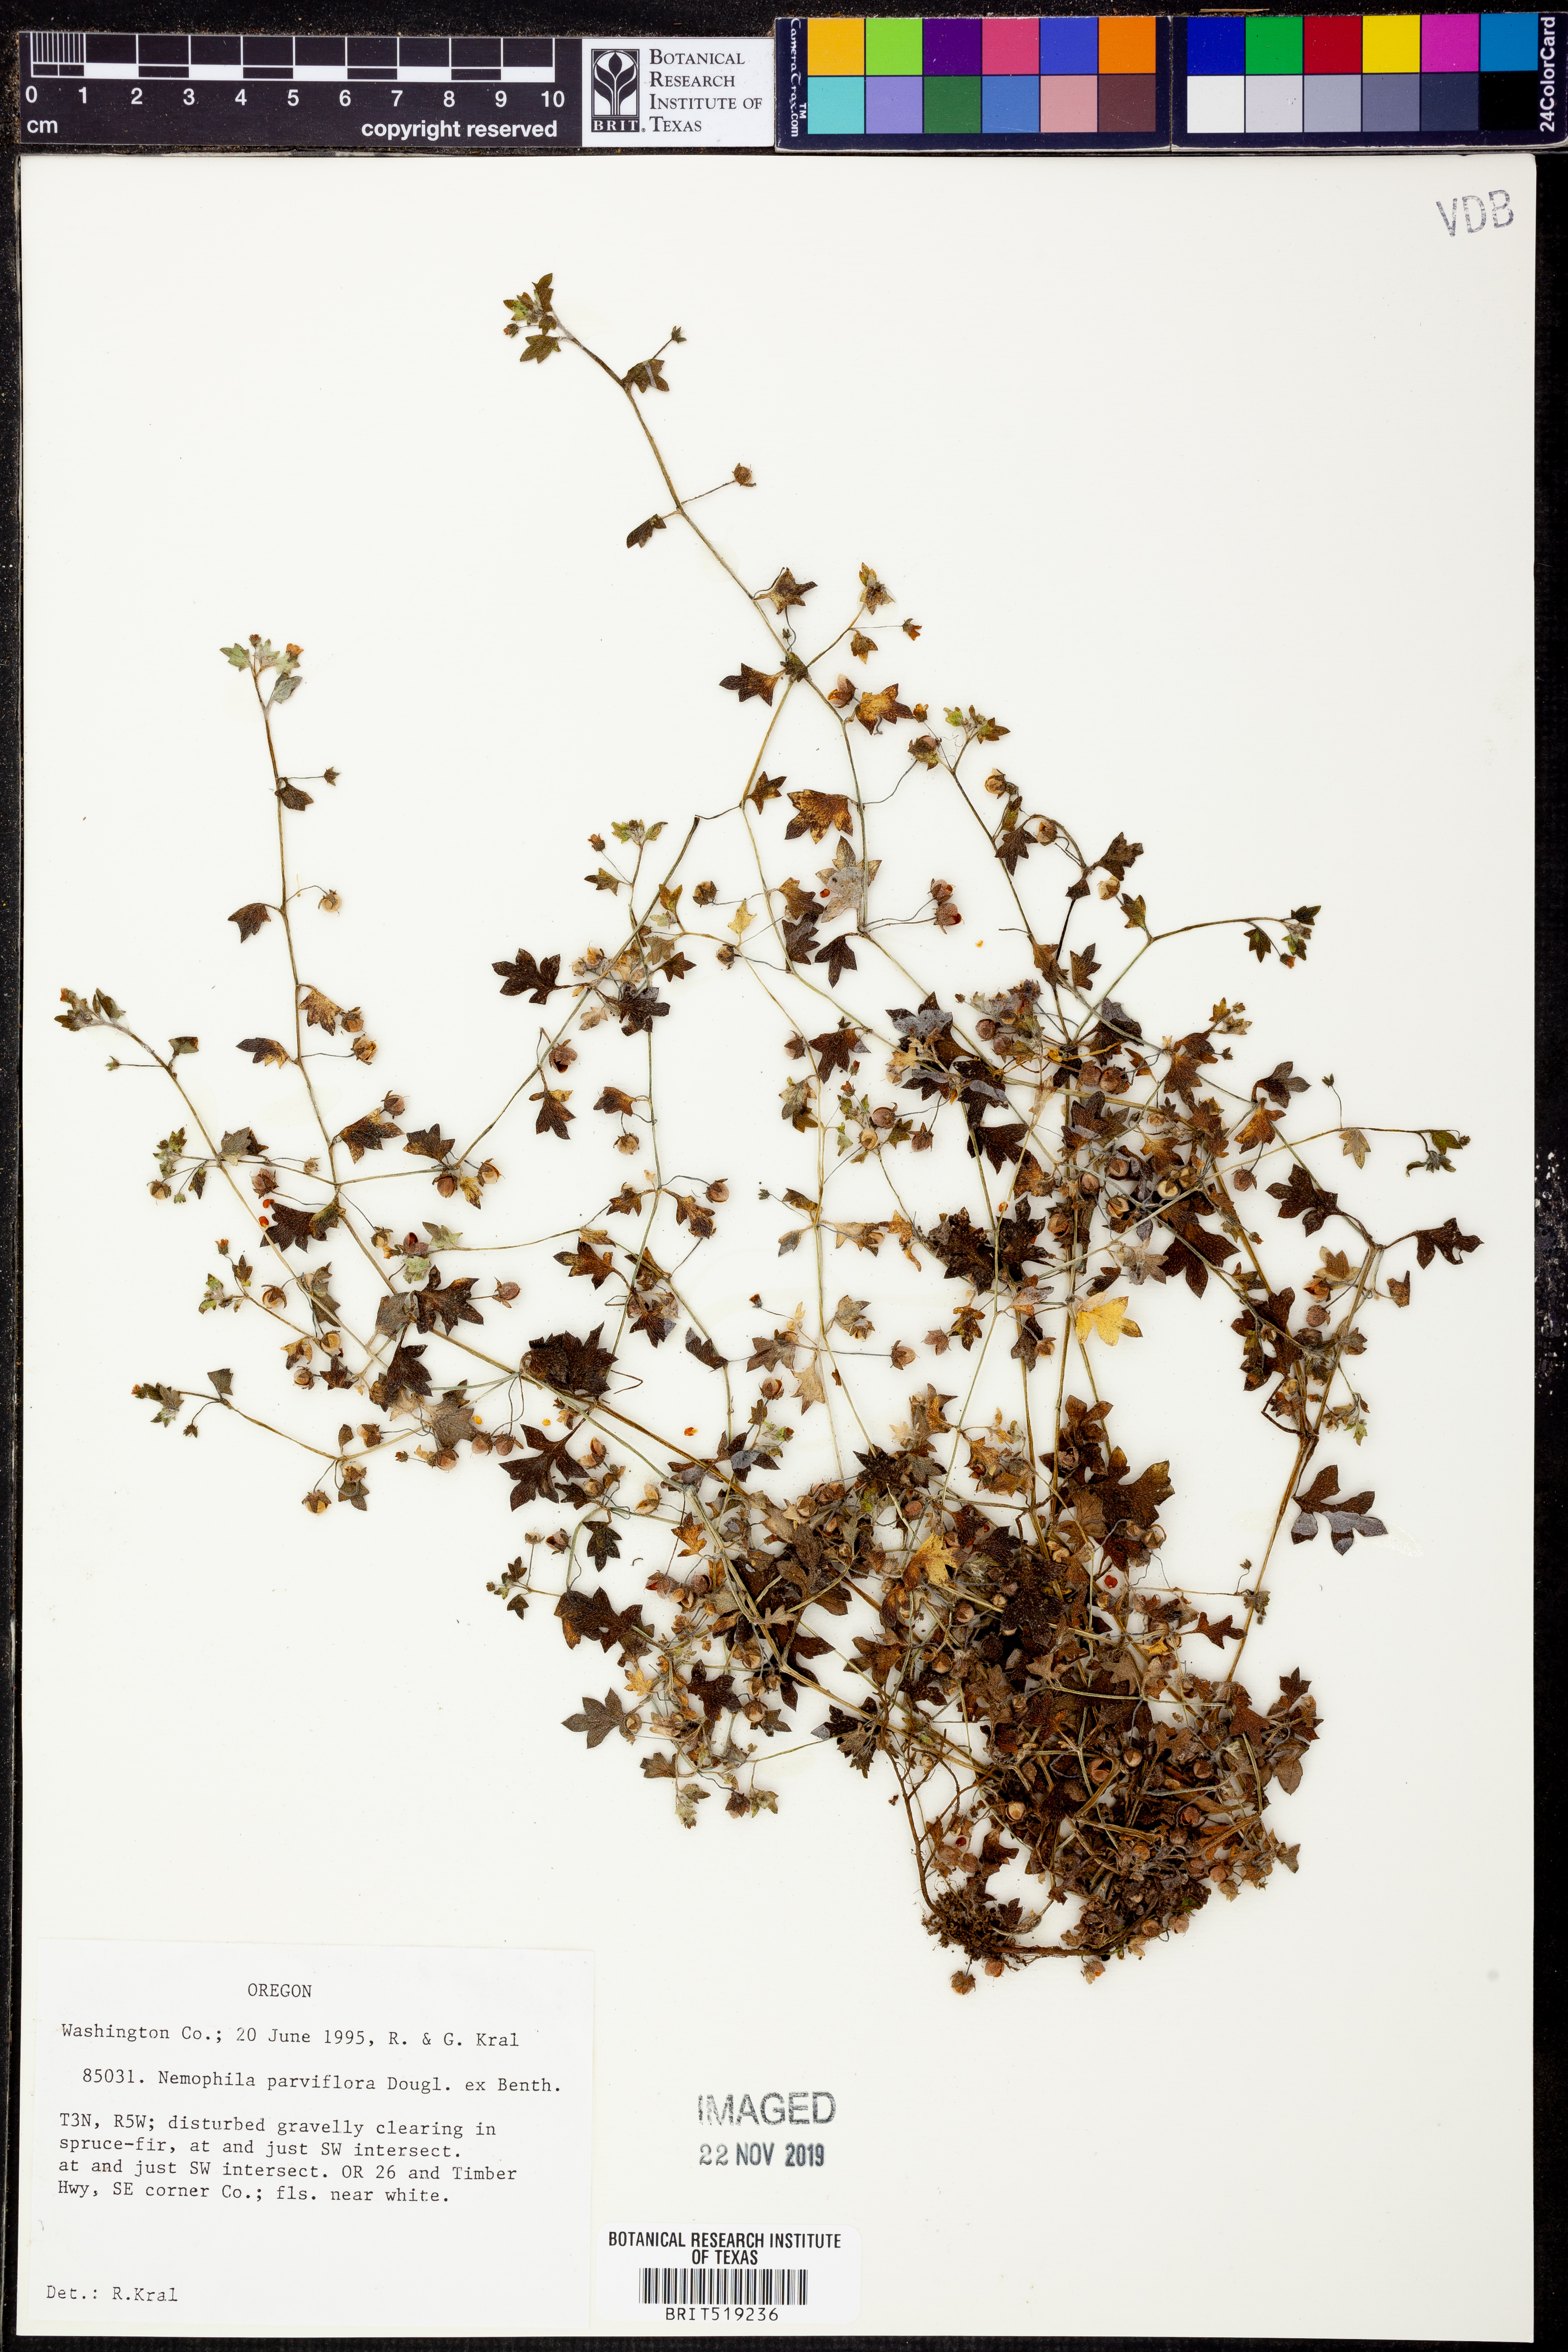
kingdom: Plantae
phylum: Tracheophyta
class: Magnoliopsida
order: Boraginales
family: Hydrophyllaceae
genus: Nemophila
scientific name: Nemophila parviflora
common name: Small-flowered baby-blue-eyes
